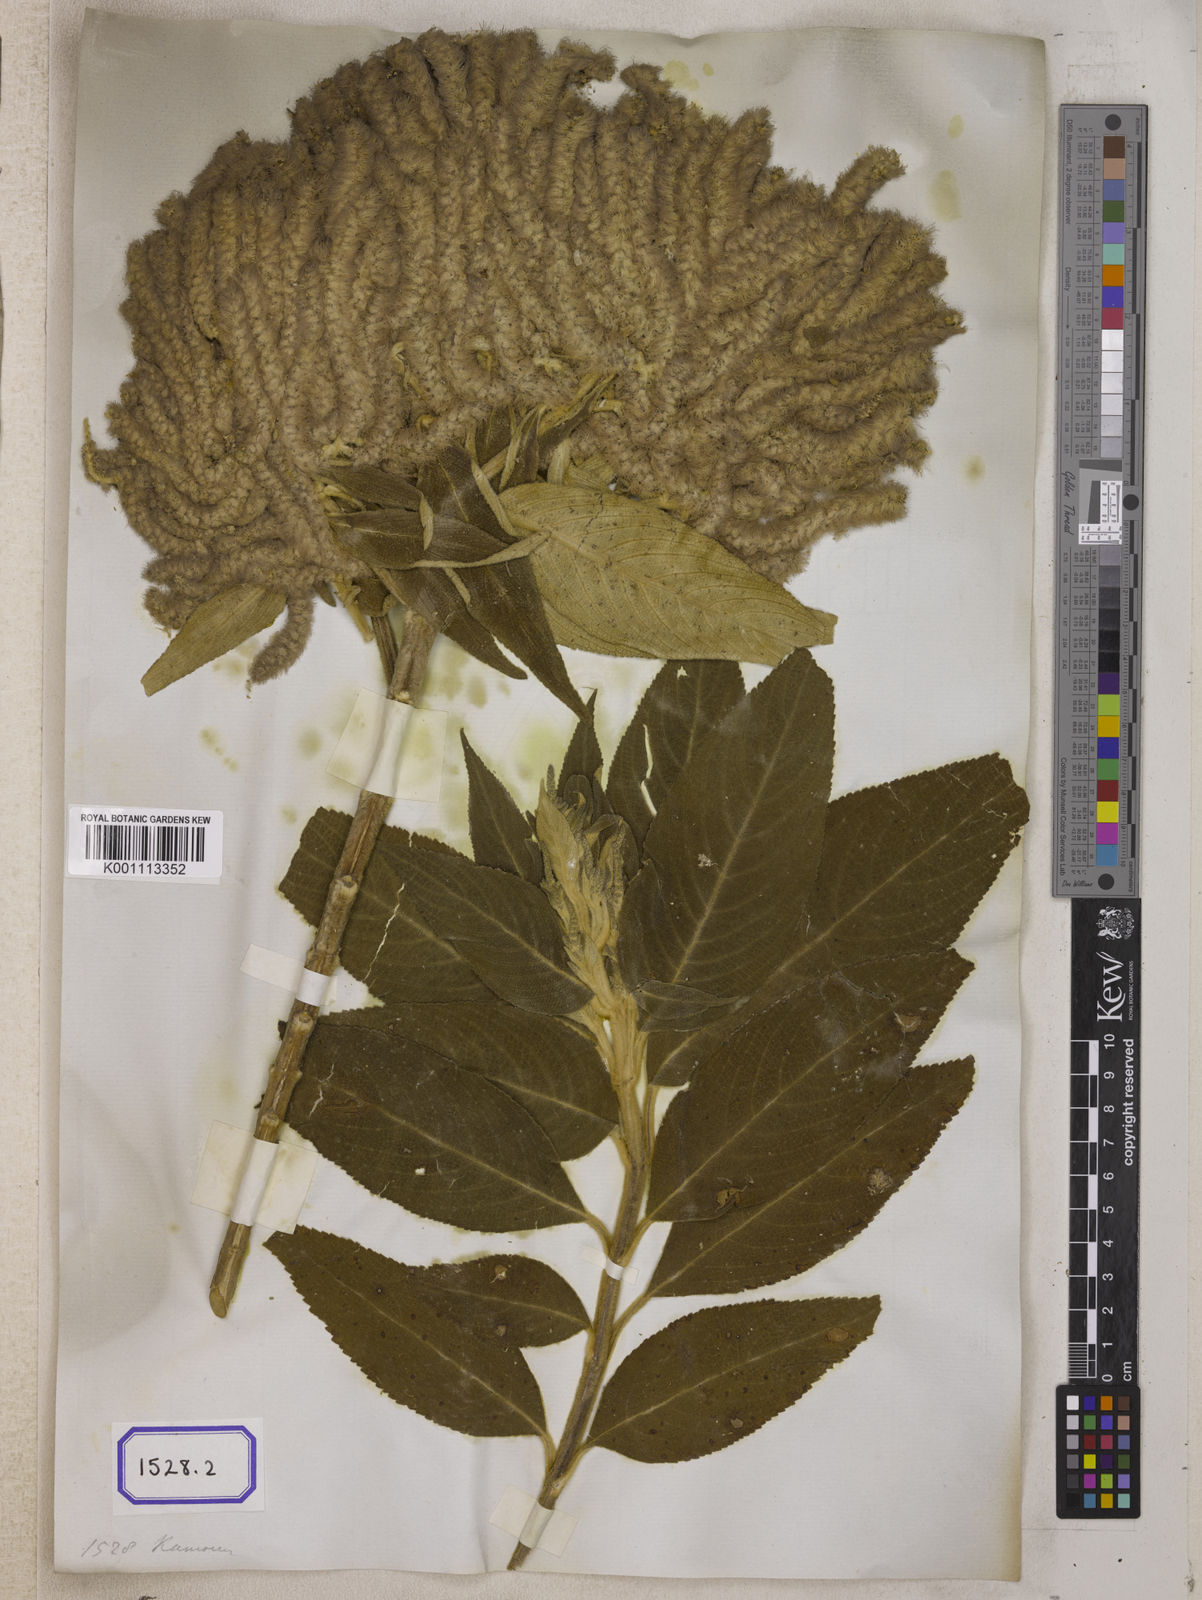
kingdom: Plantae
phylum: Tracheophyta
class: Magnoliopsida
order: Lamiales
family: Lamiaceae
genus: Colebrookea
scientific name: Colebrookea
